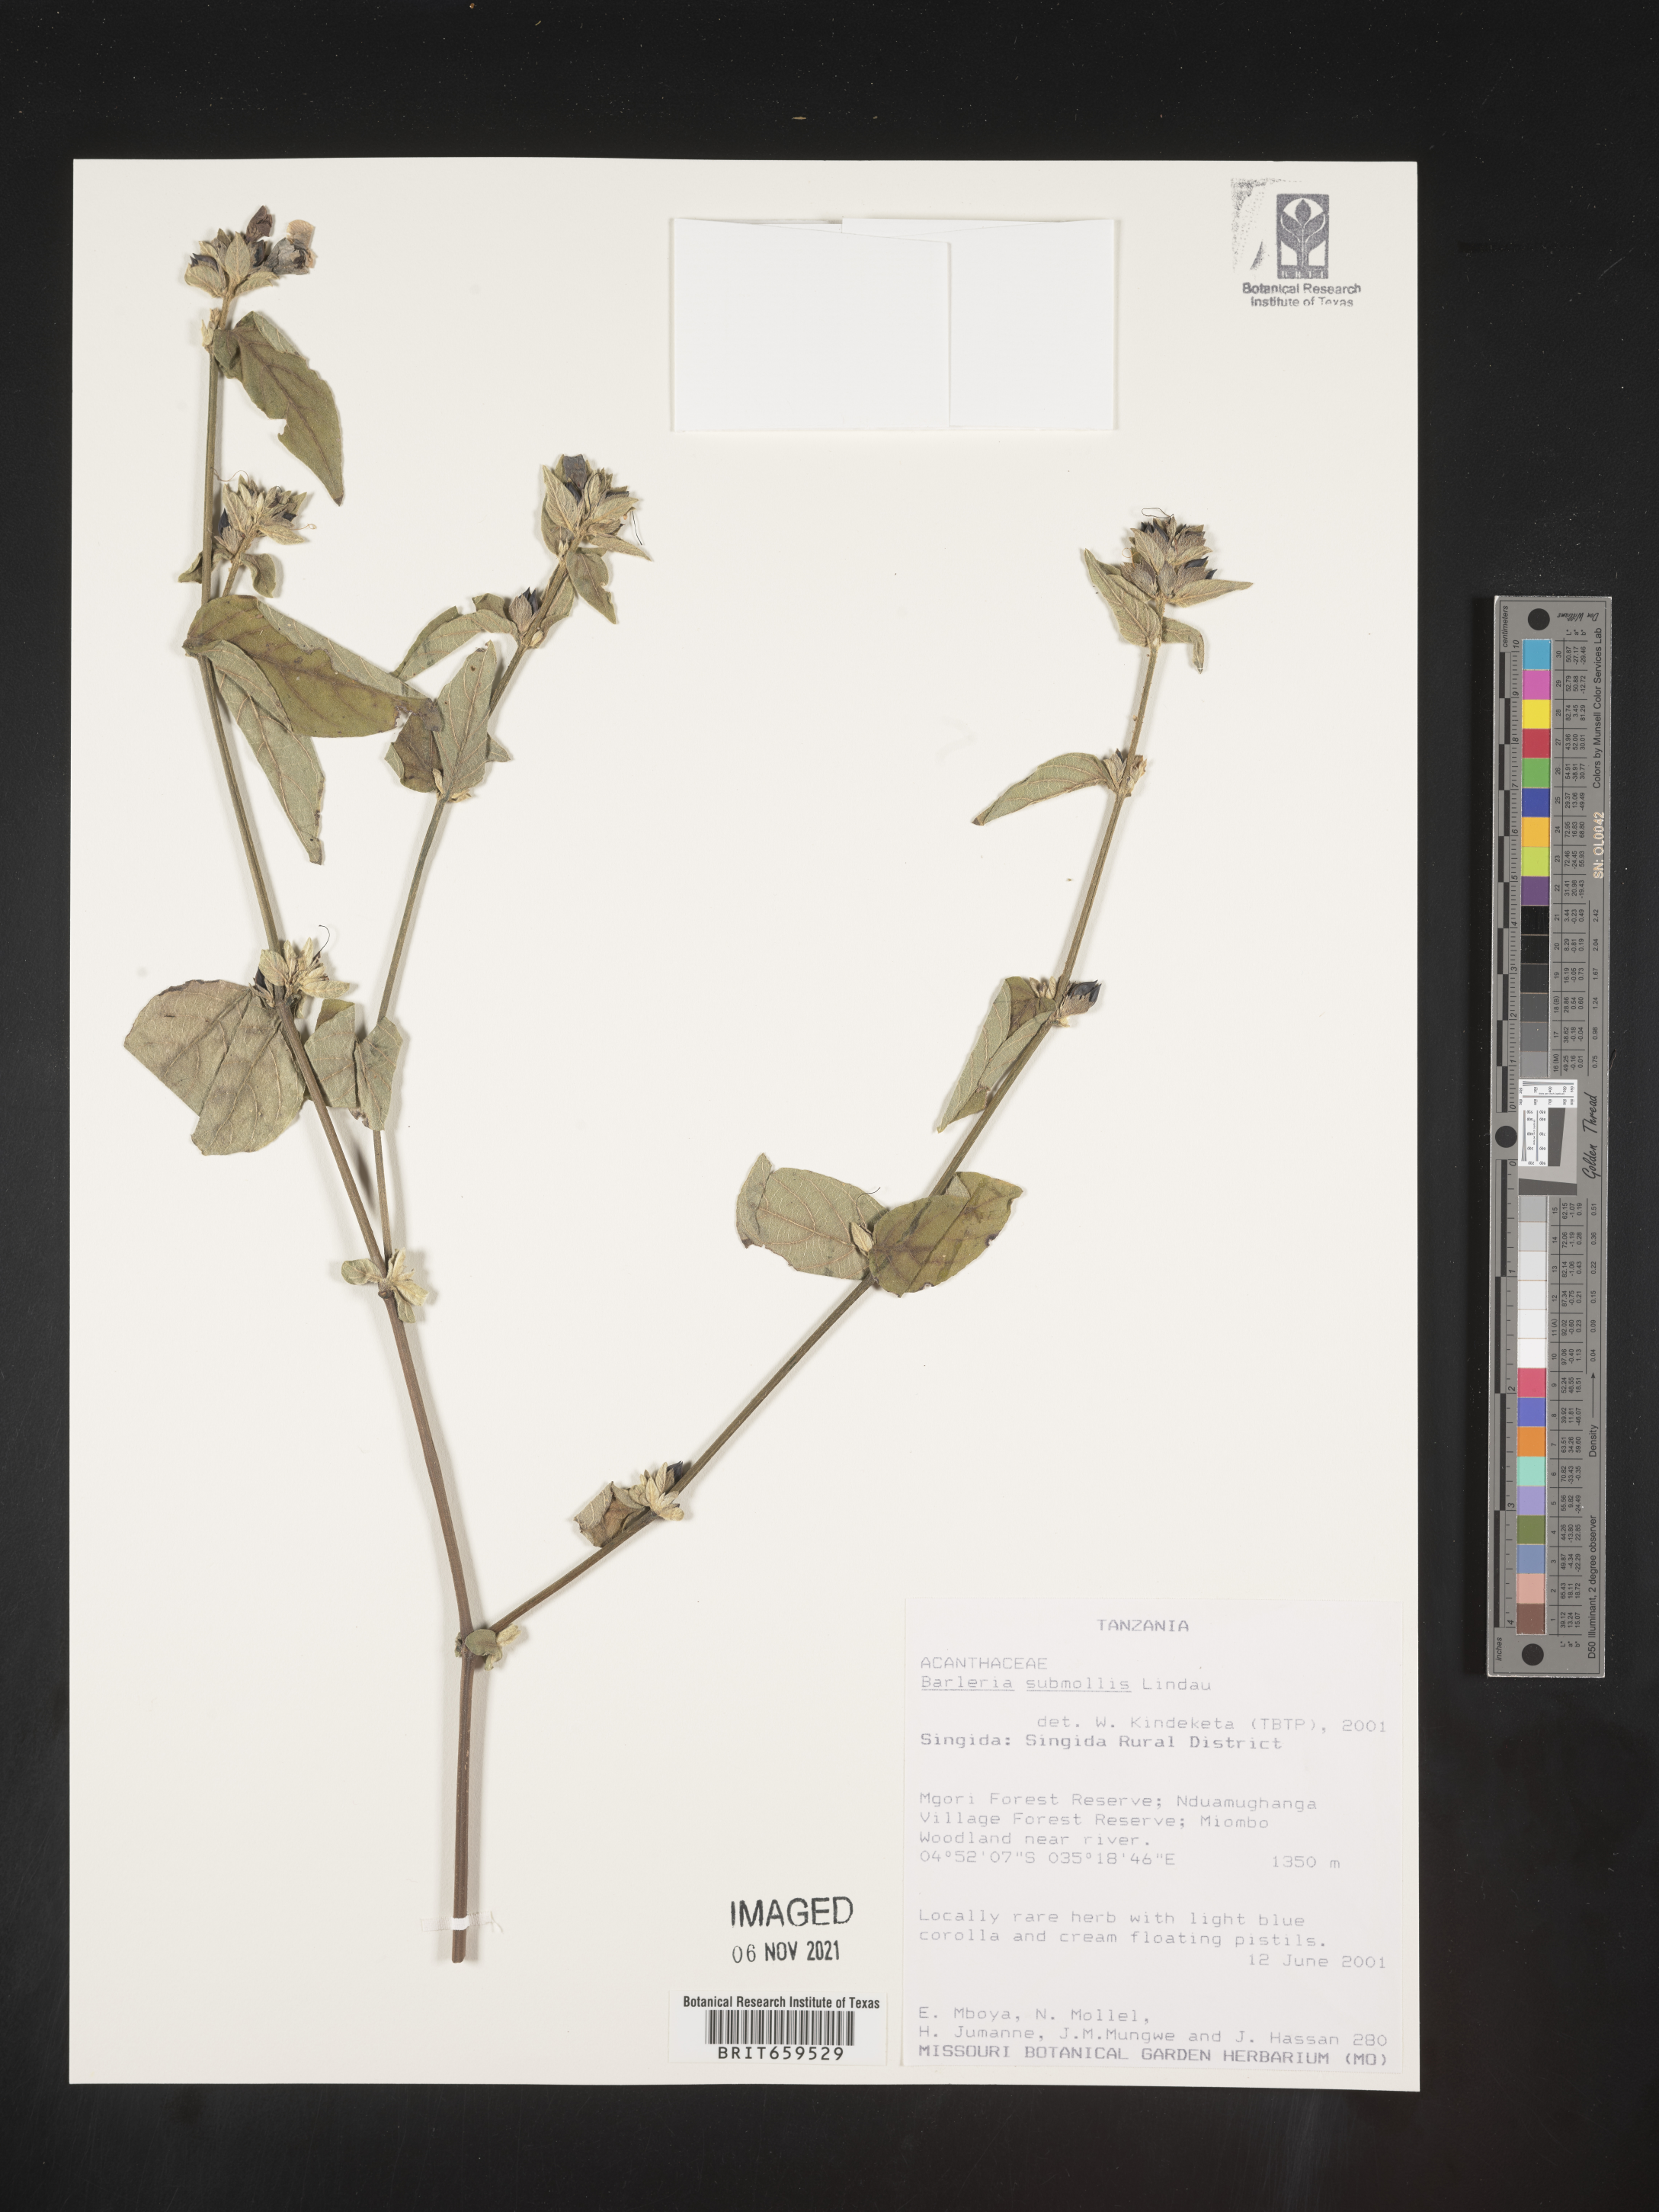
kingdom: Plantae
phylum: Tracheophyta
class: Magnoliopsida
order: Lamiales
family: Acanthaceae
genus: Barleria
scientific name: Barleria submollis
